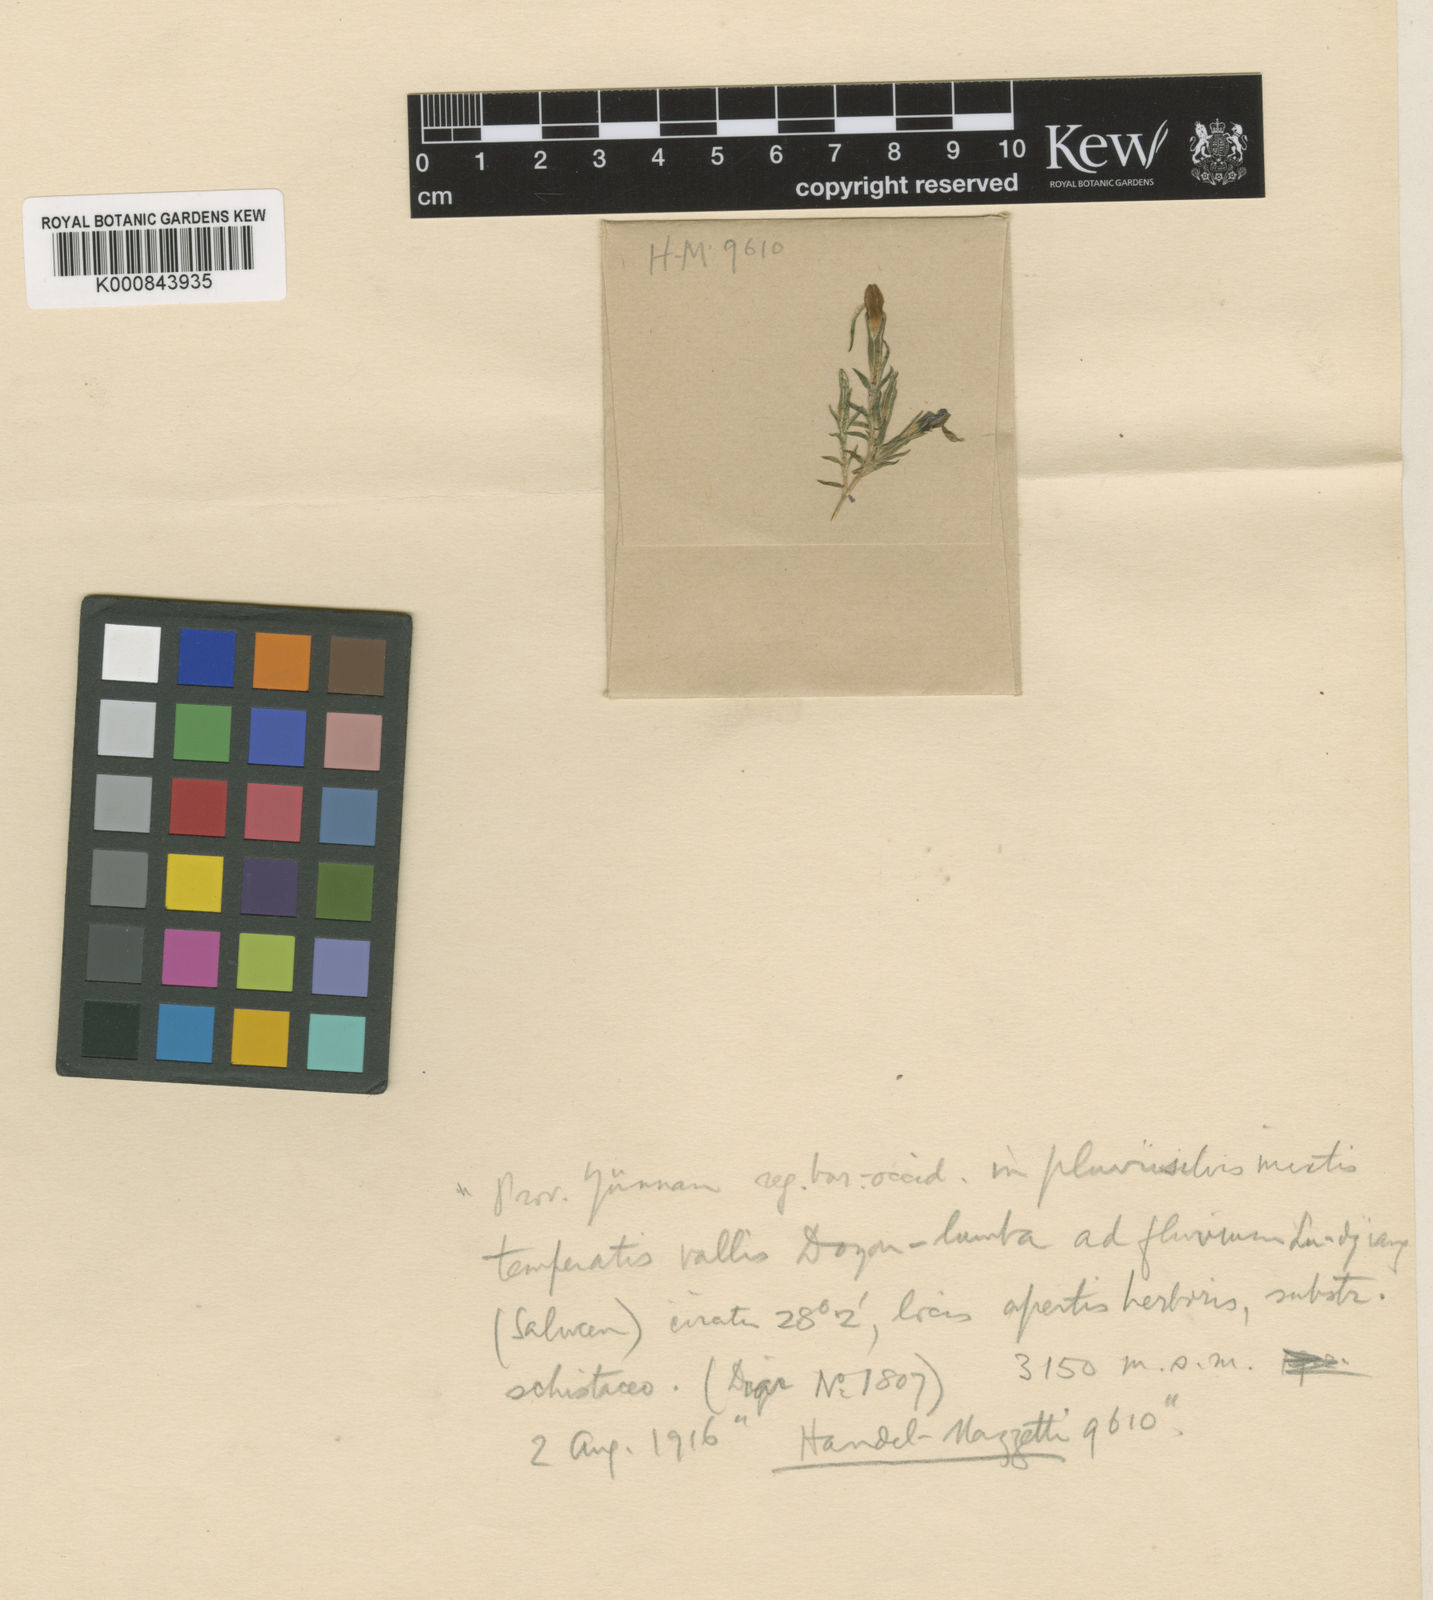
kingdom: Plantae
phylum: Tracheophyta
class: Magnoliopsida
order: Gentianales
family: Gentianaceae
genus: Gentiana
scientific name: Gentiana cuneibarba
